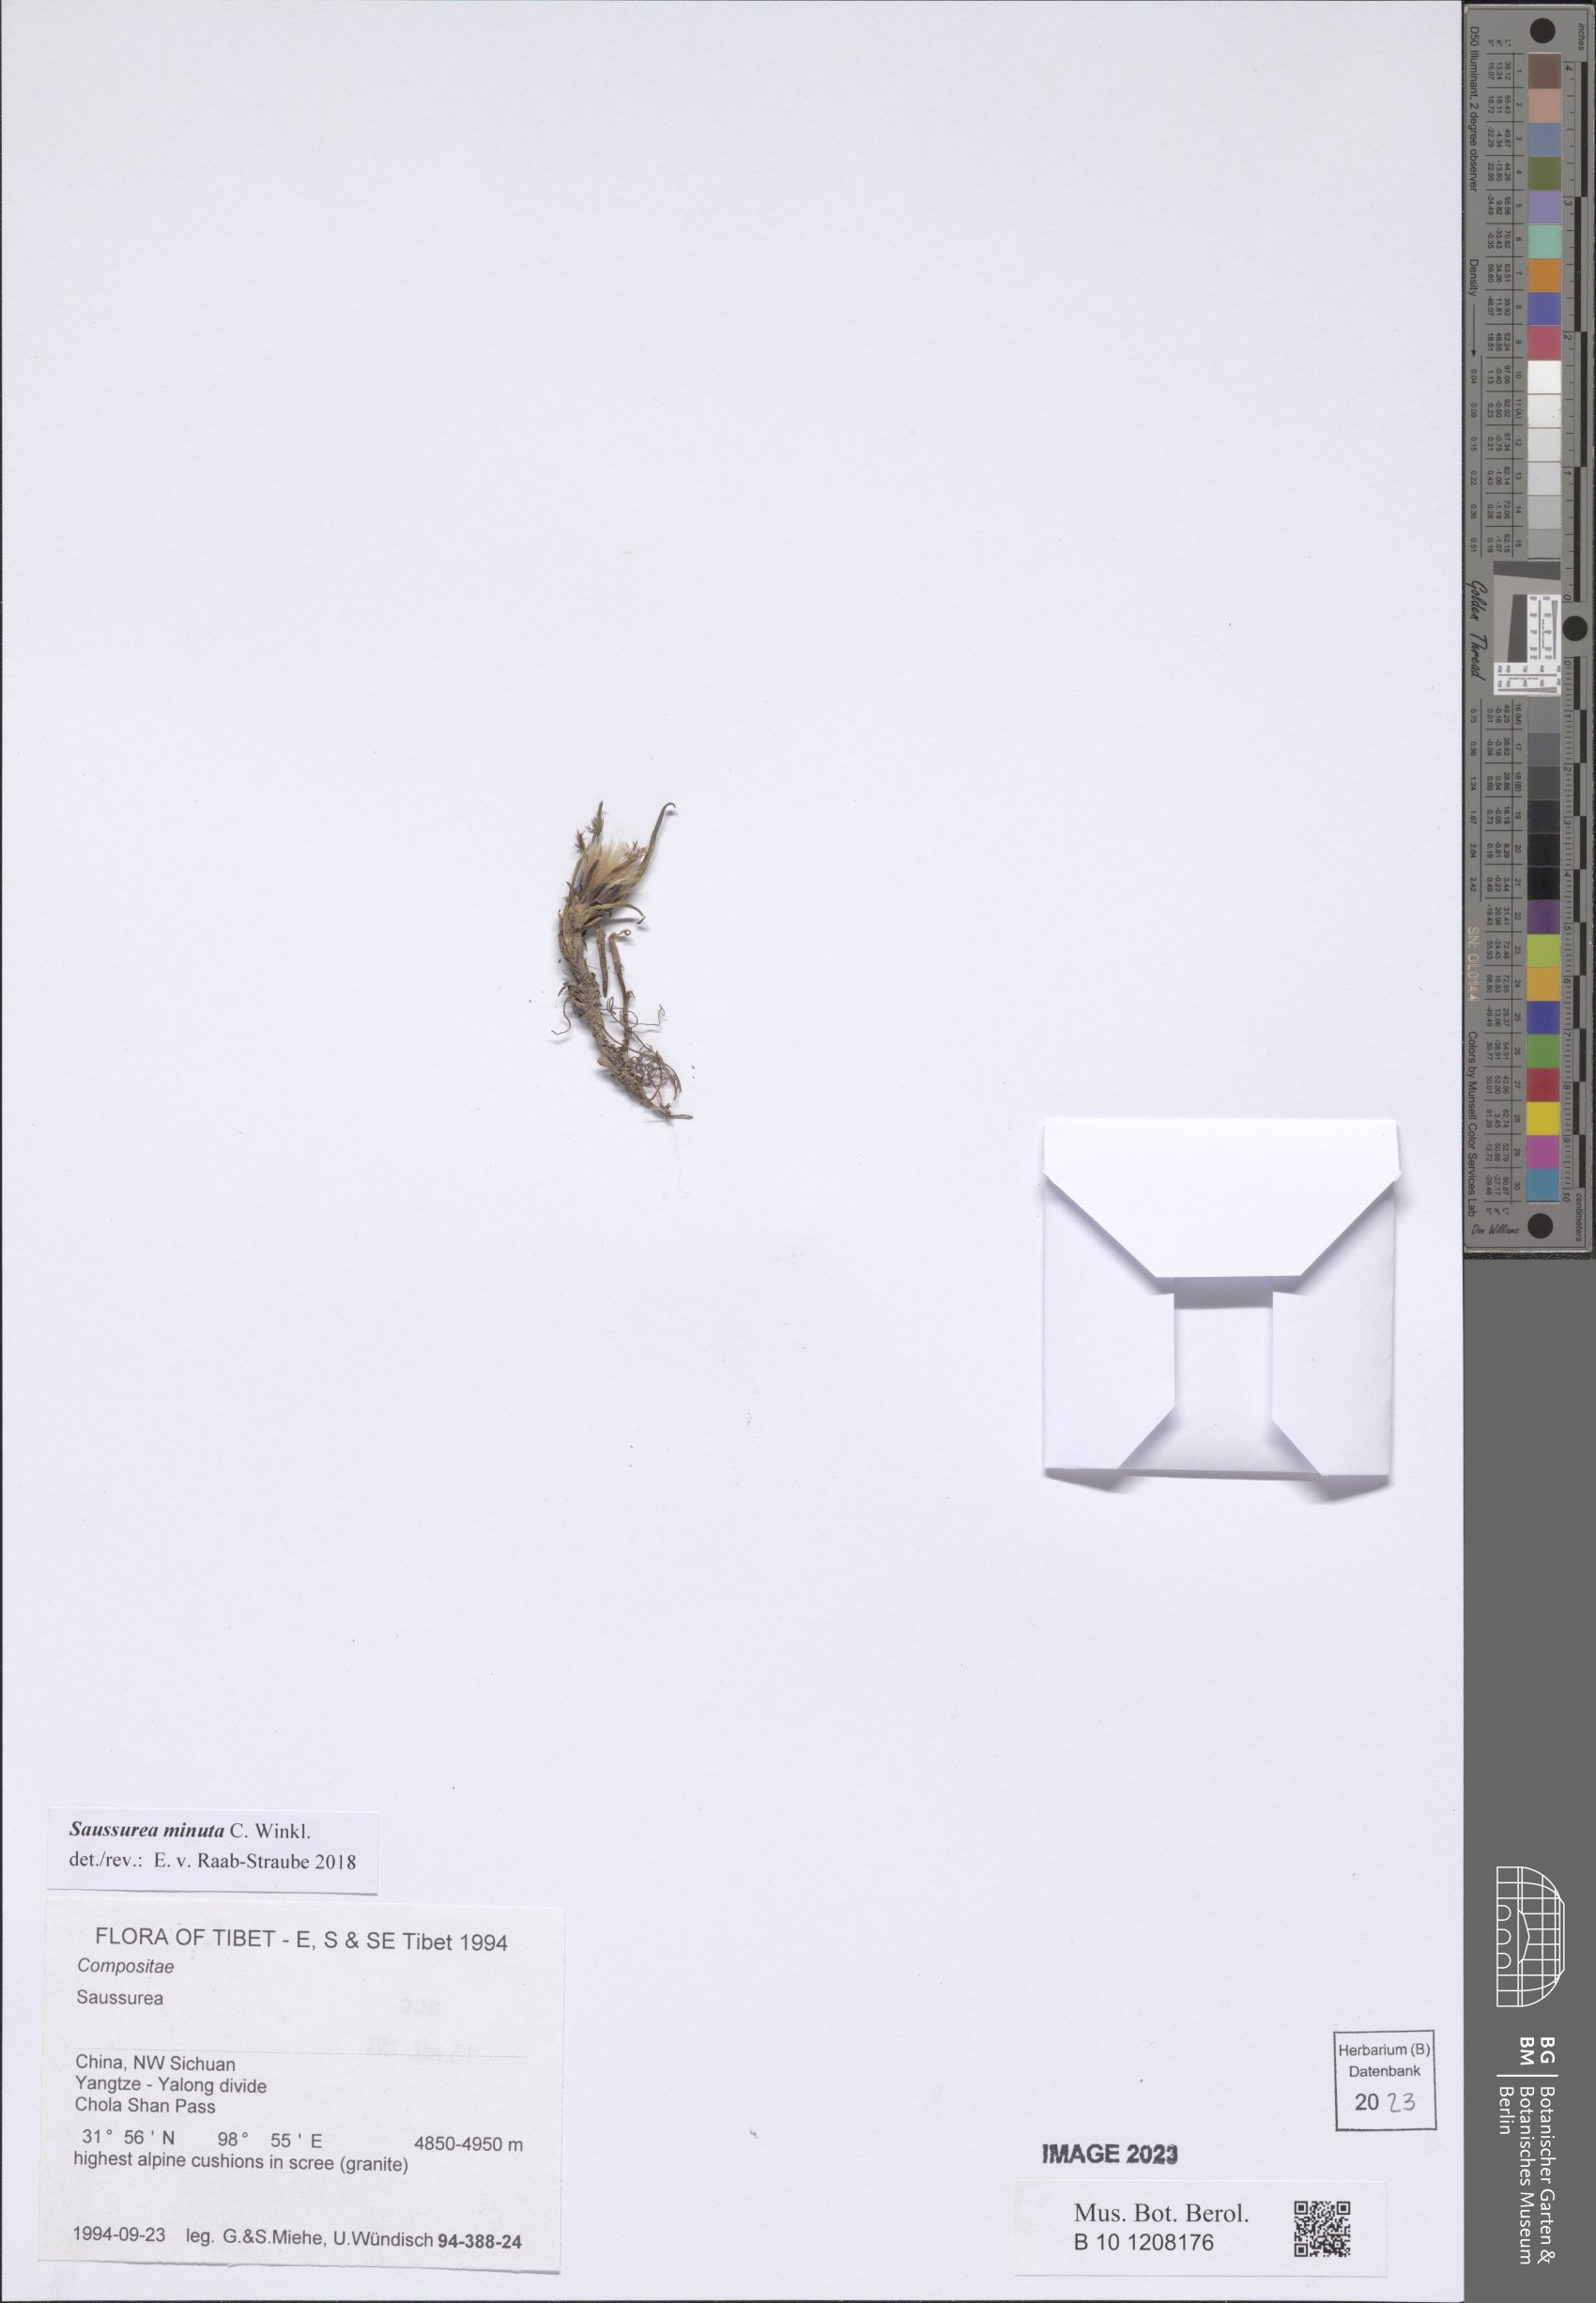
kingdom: Plantae
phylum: Tracheophyta
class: Magnoliopsida
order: Asterales
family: Asteraceae
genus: Saussurea
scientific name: Saussurea minuta
